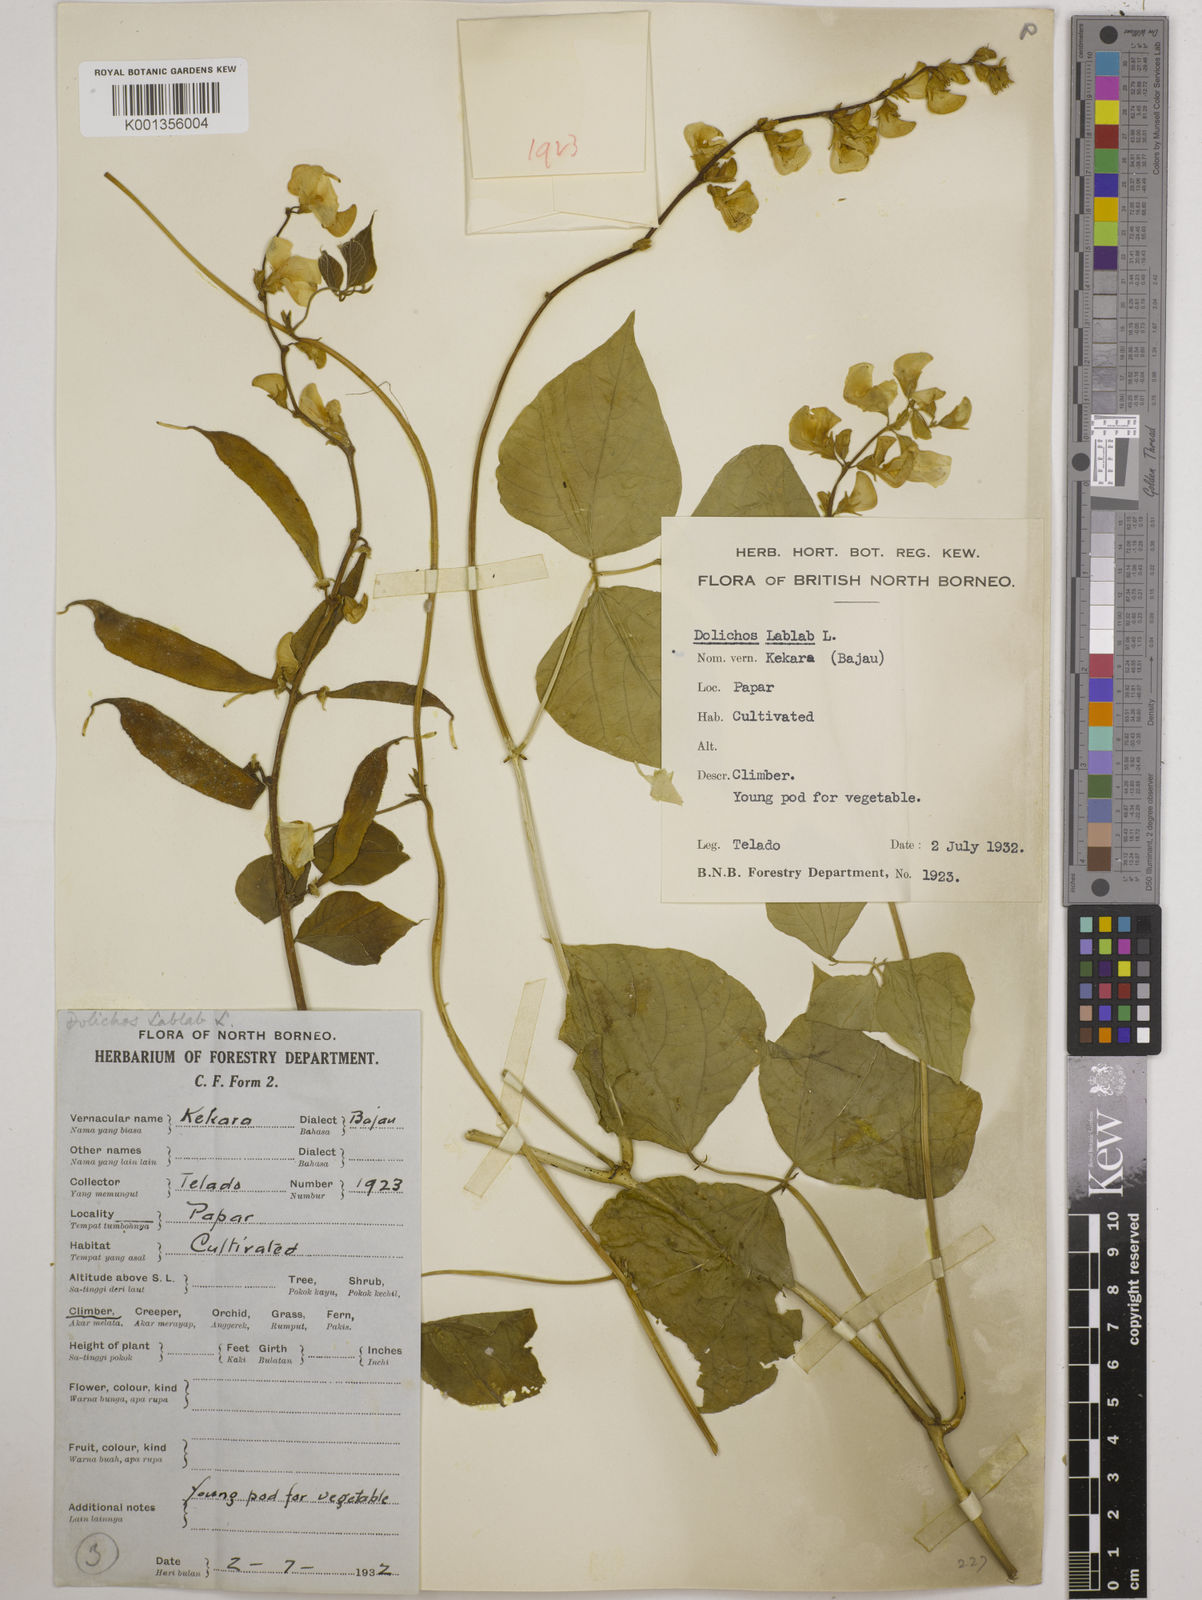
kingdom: Plantae
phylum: Tracheophyta
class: Magnoliopsida
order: Fabales
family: Fabaceae
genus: Lablab
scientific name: Lablab purpureus
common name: Lablab-bean
